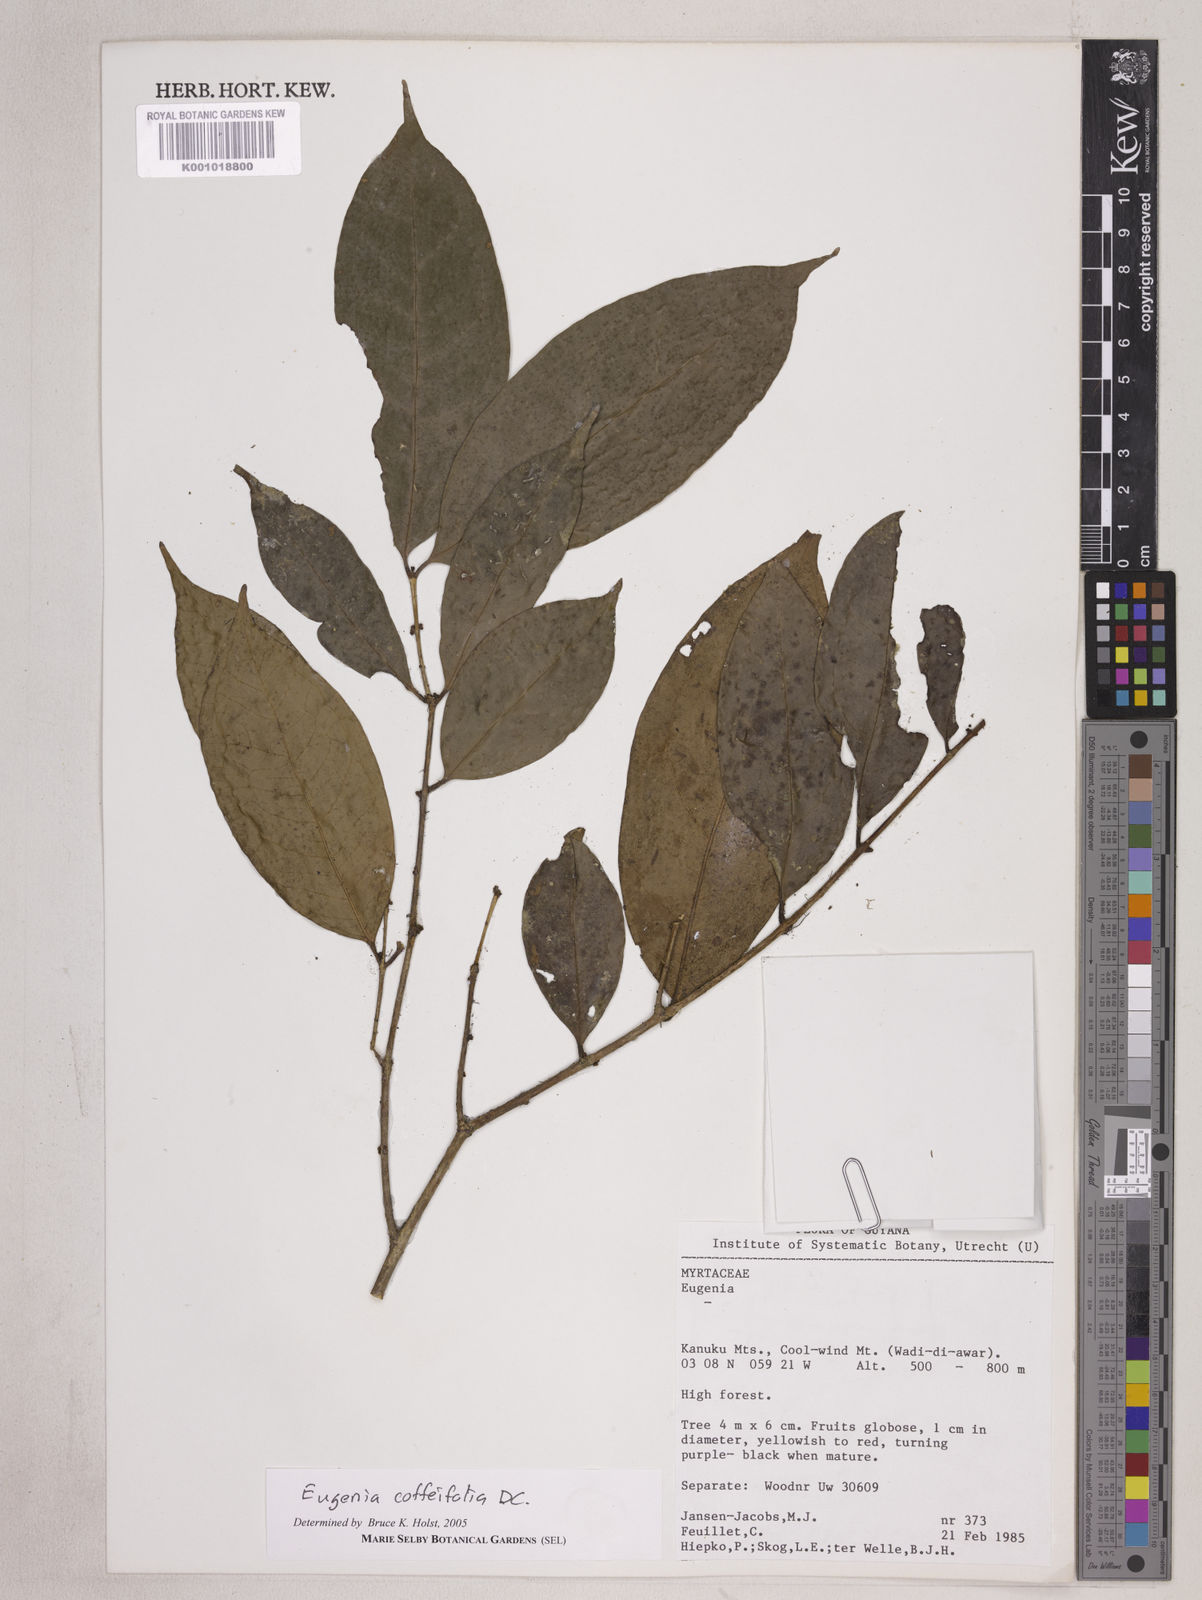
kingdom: Plantae
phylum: Tracheophyta
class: Magnoliopsida
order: Myrtales
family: Myrtaceae
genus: Eugenia
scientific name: Eugenia coffeifolia
